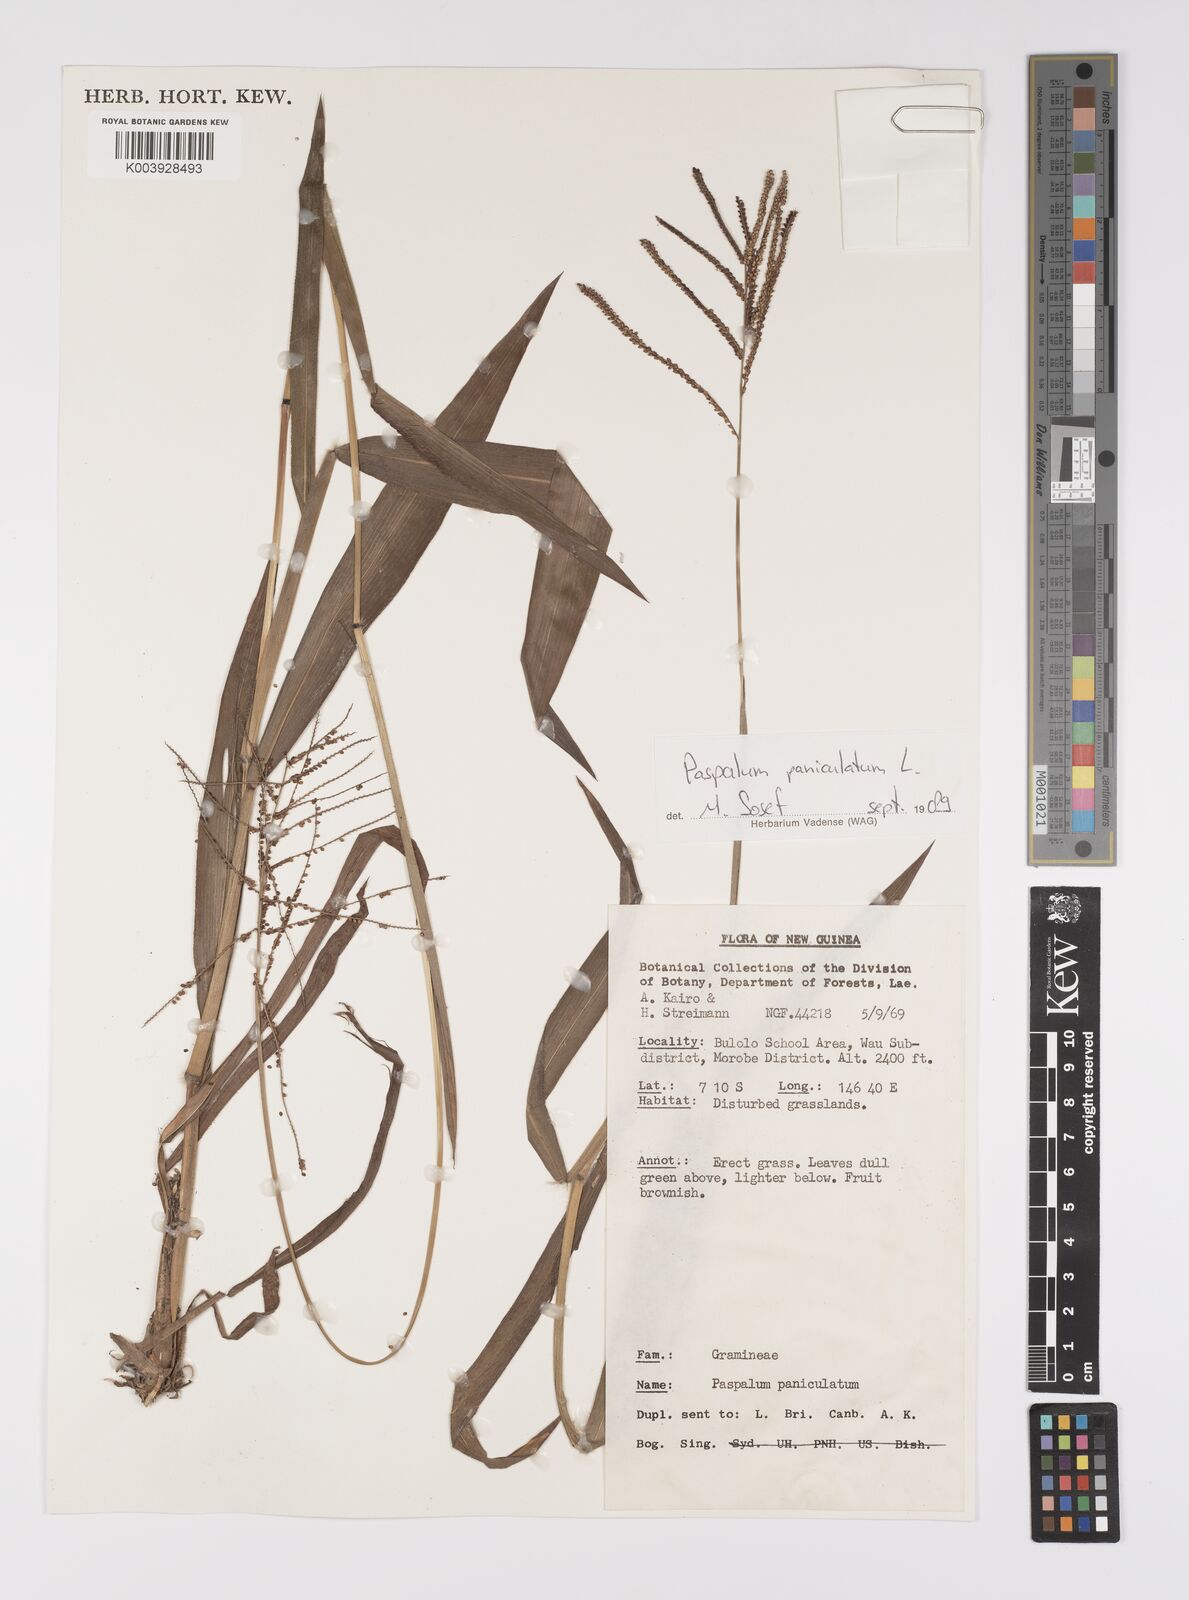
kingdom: Plantae
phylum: Tracheophyta
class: Liliopsida
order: Poales
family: Poaceae
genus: Paspalum
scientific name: Paspalum paniculatum
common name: Arrocillo
